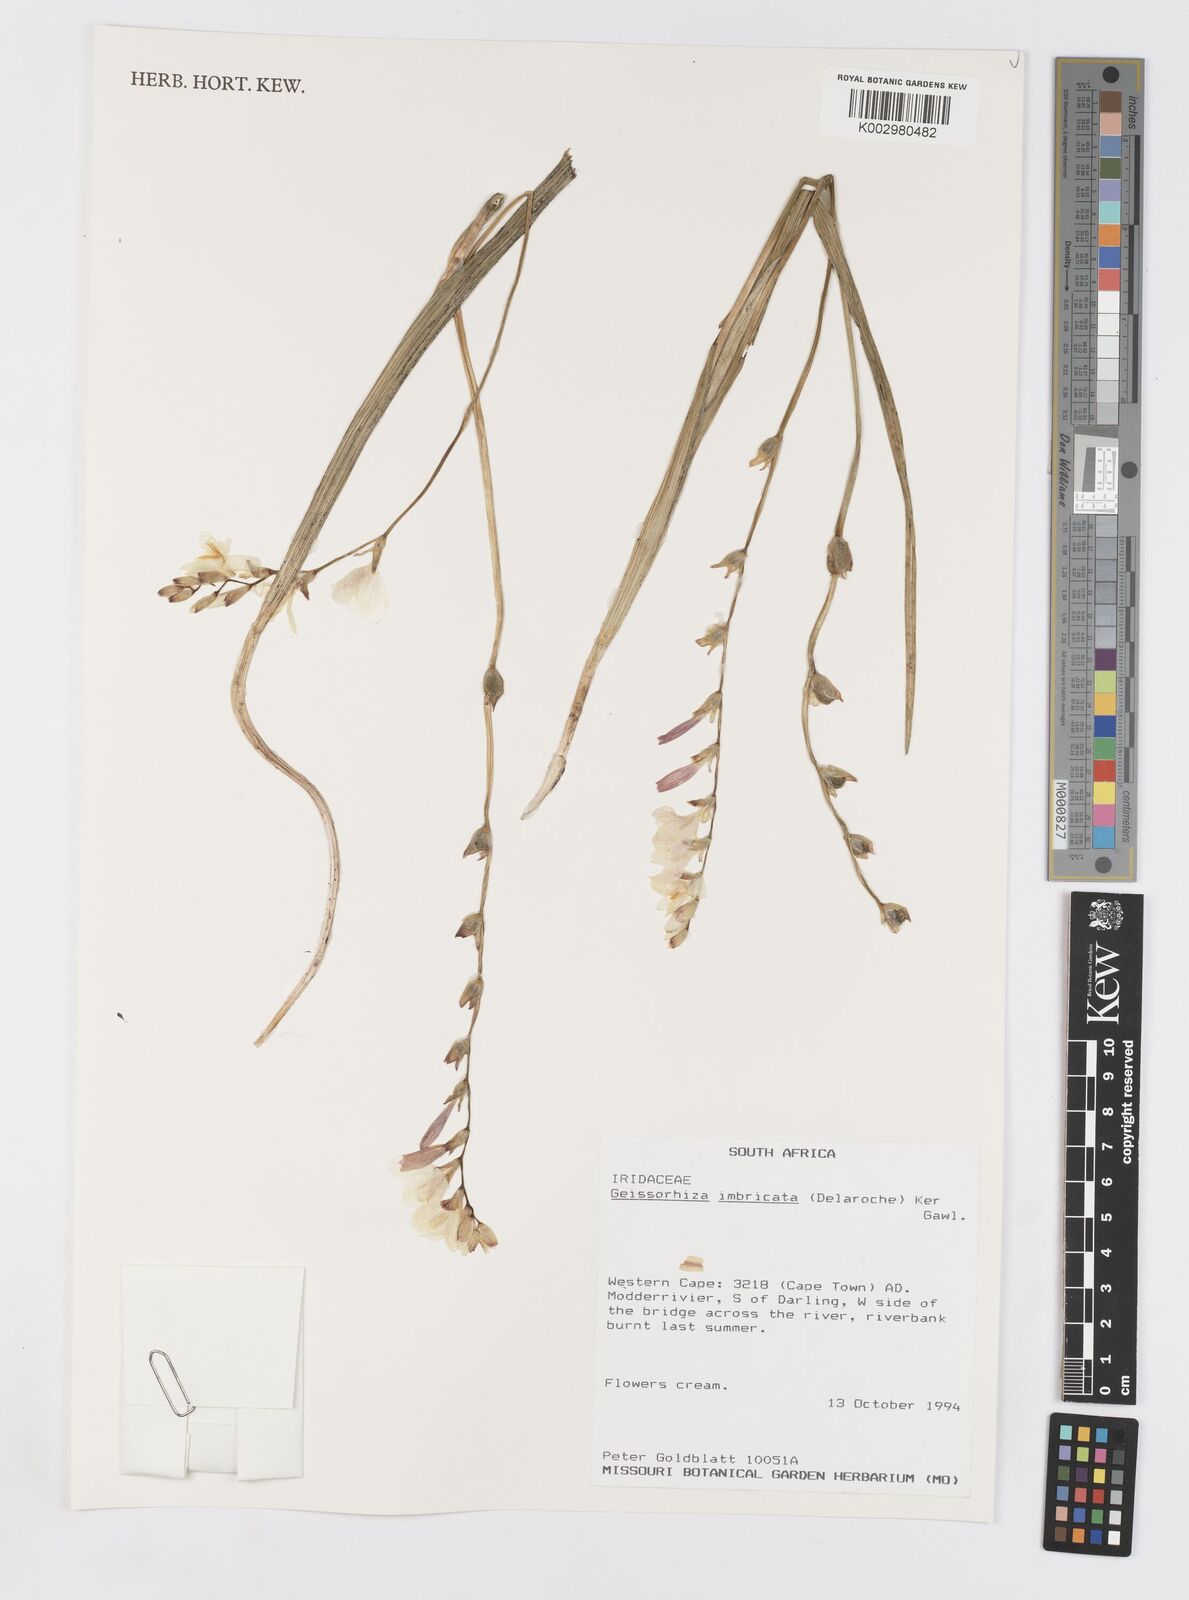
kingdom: Plantae
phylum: Tracheophyta
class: Liliopsida
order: Asparagales
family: Iridaceae
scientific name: Iridaceae
